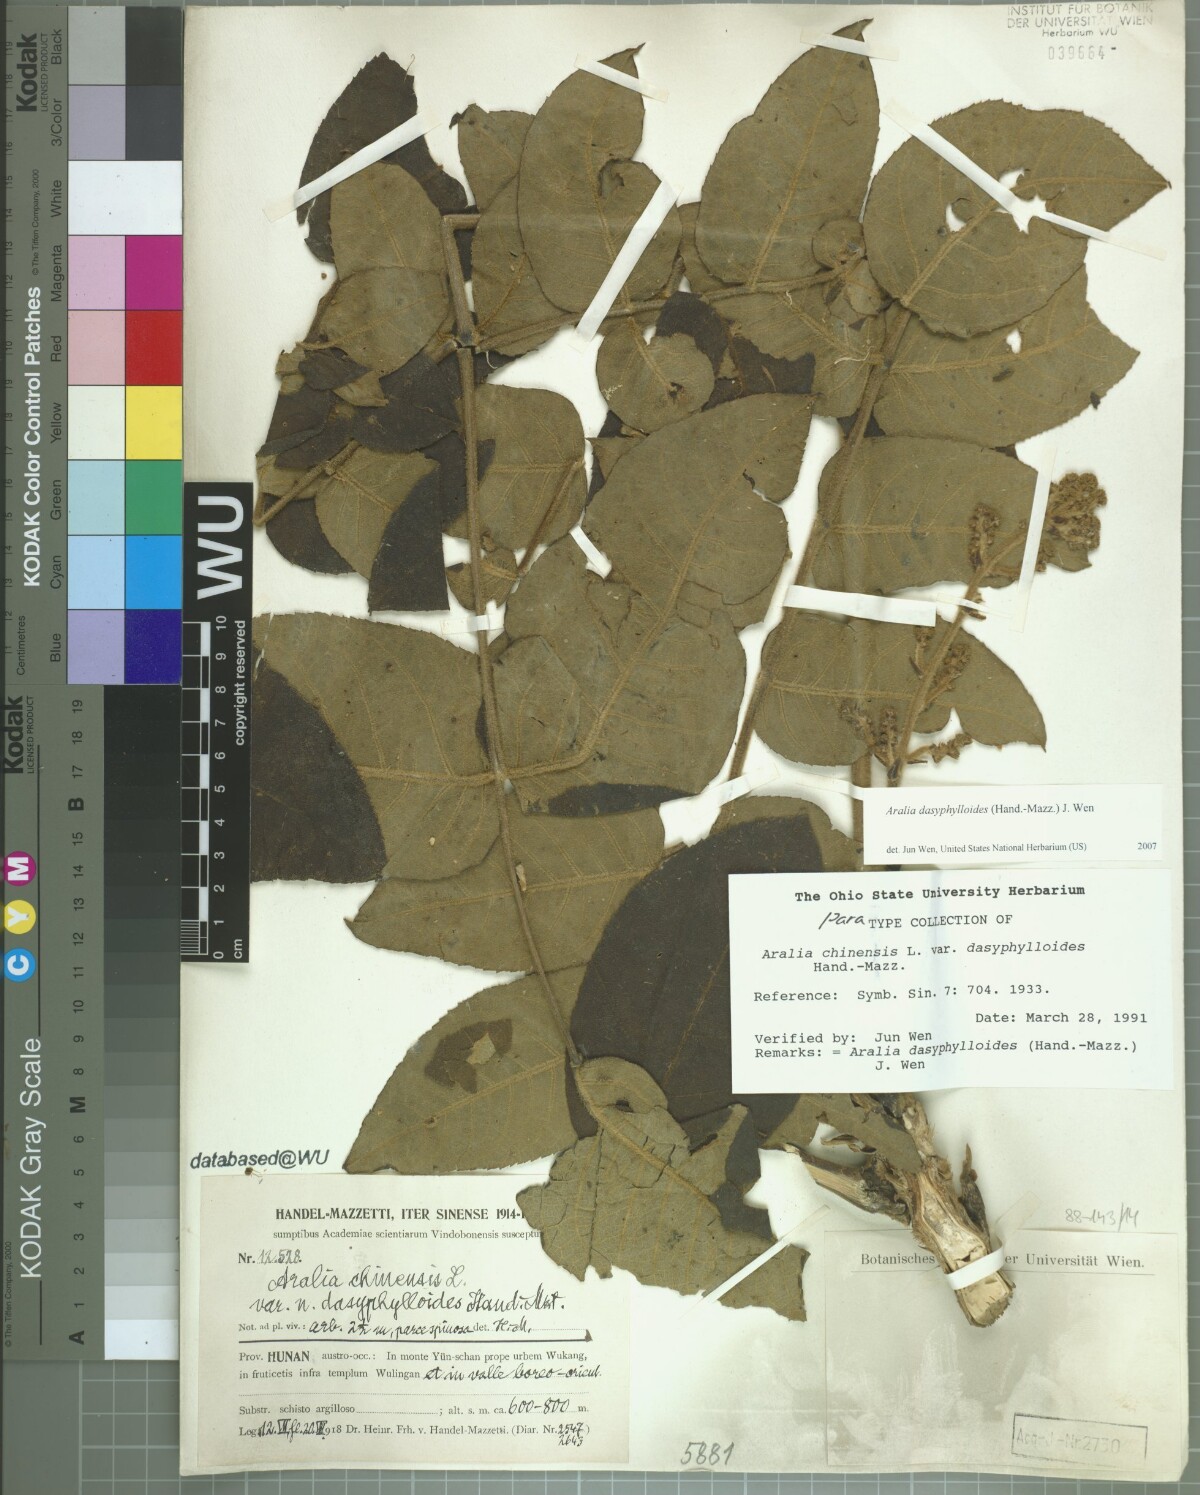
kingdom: Plantae
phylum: Tracheophyta
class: Magnoliopsida
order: Apiales
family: Araliaceae
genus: Aralia
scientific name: Aralia dasyphylloides
